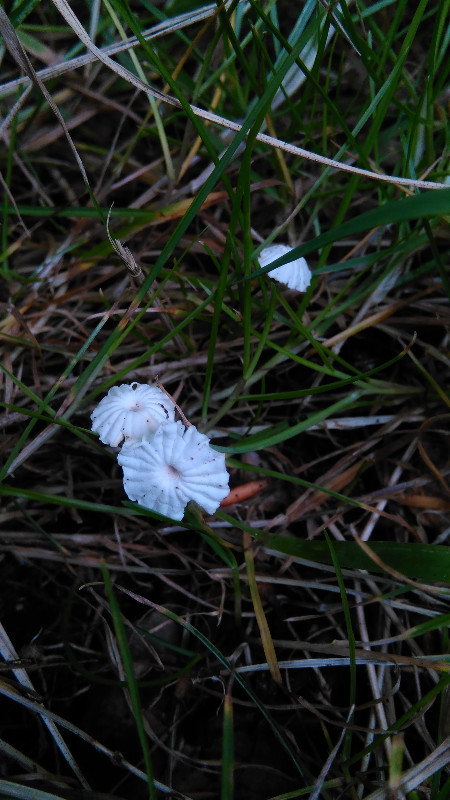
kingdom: Fungi
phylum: Basidiomycota
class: Agaricomycetes
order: Agaricales
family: Marasmiaceae
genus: Marasmius
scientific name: Marasmius rotula
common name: hjul-bruskhat
